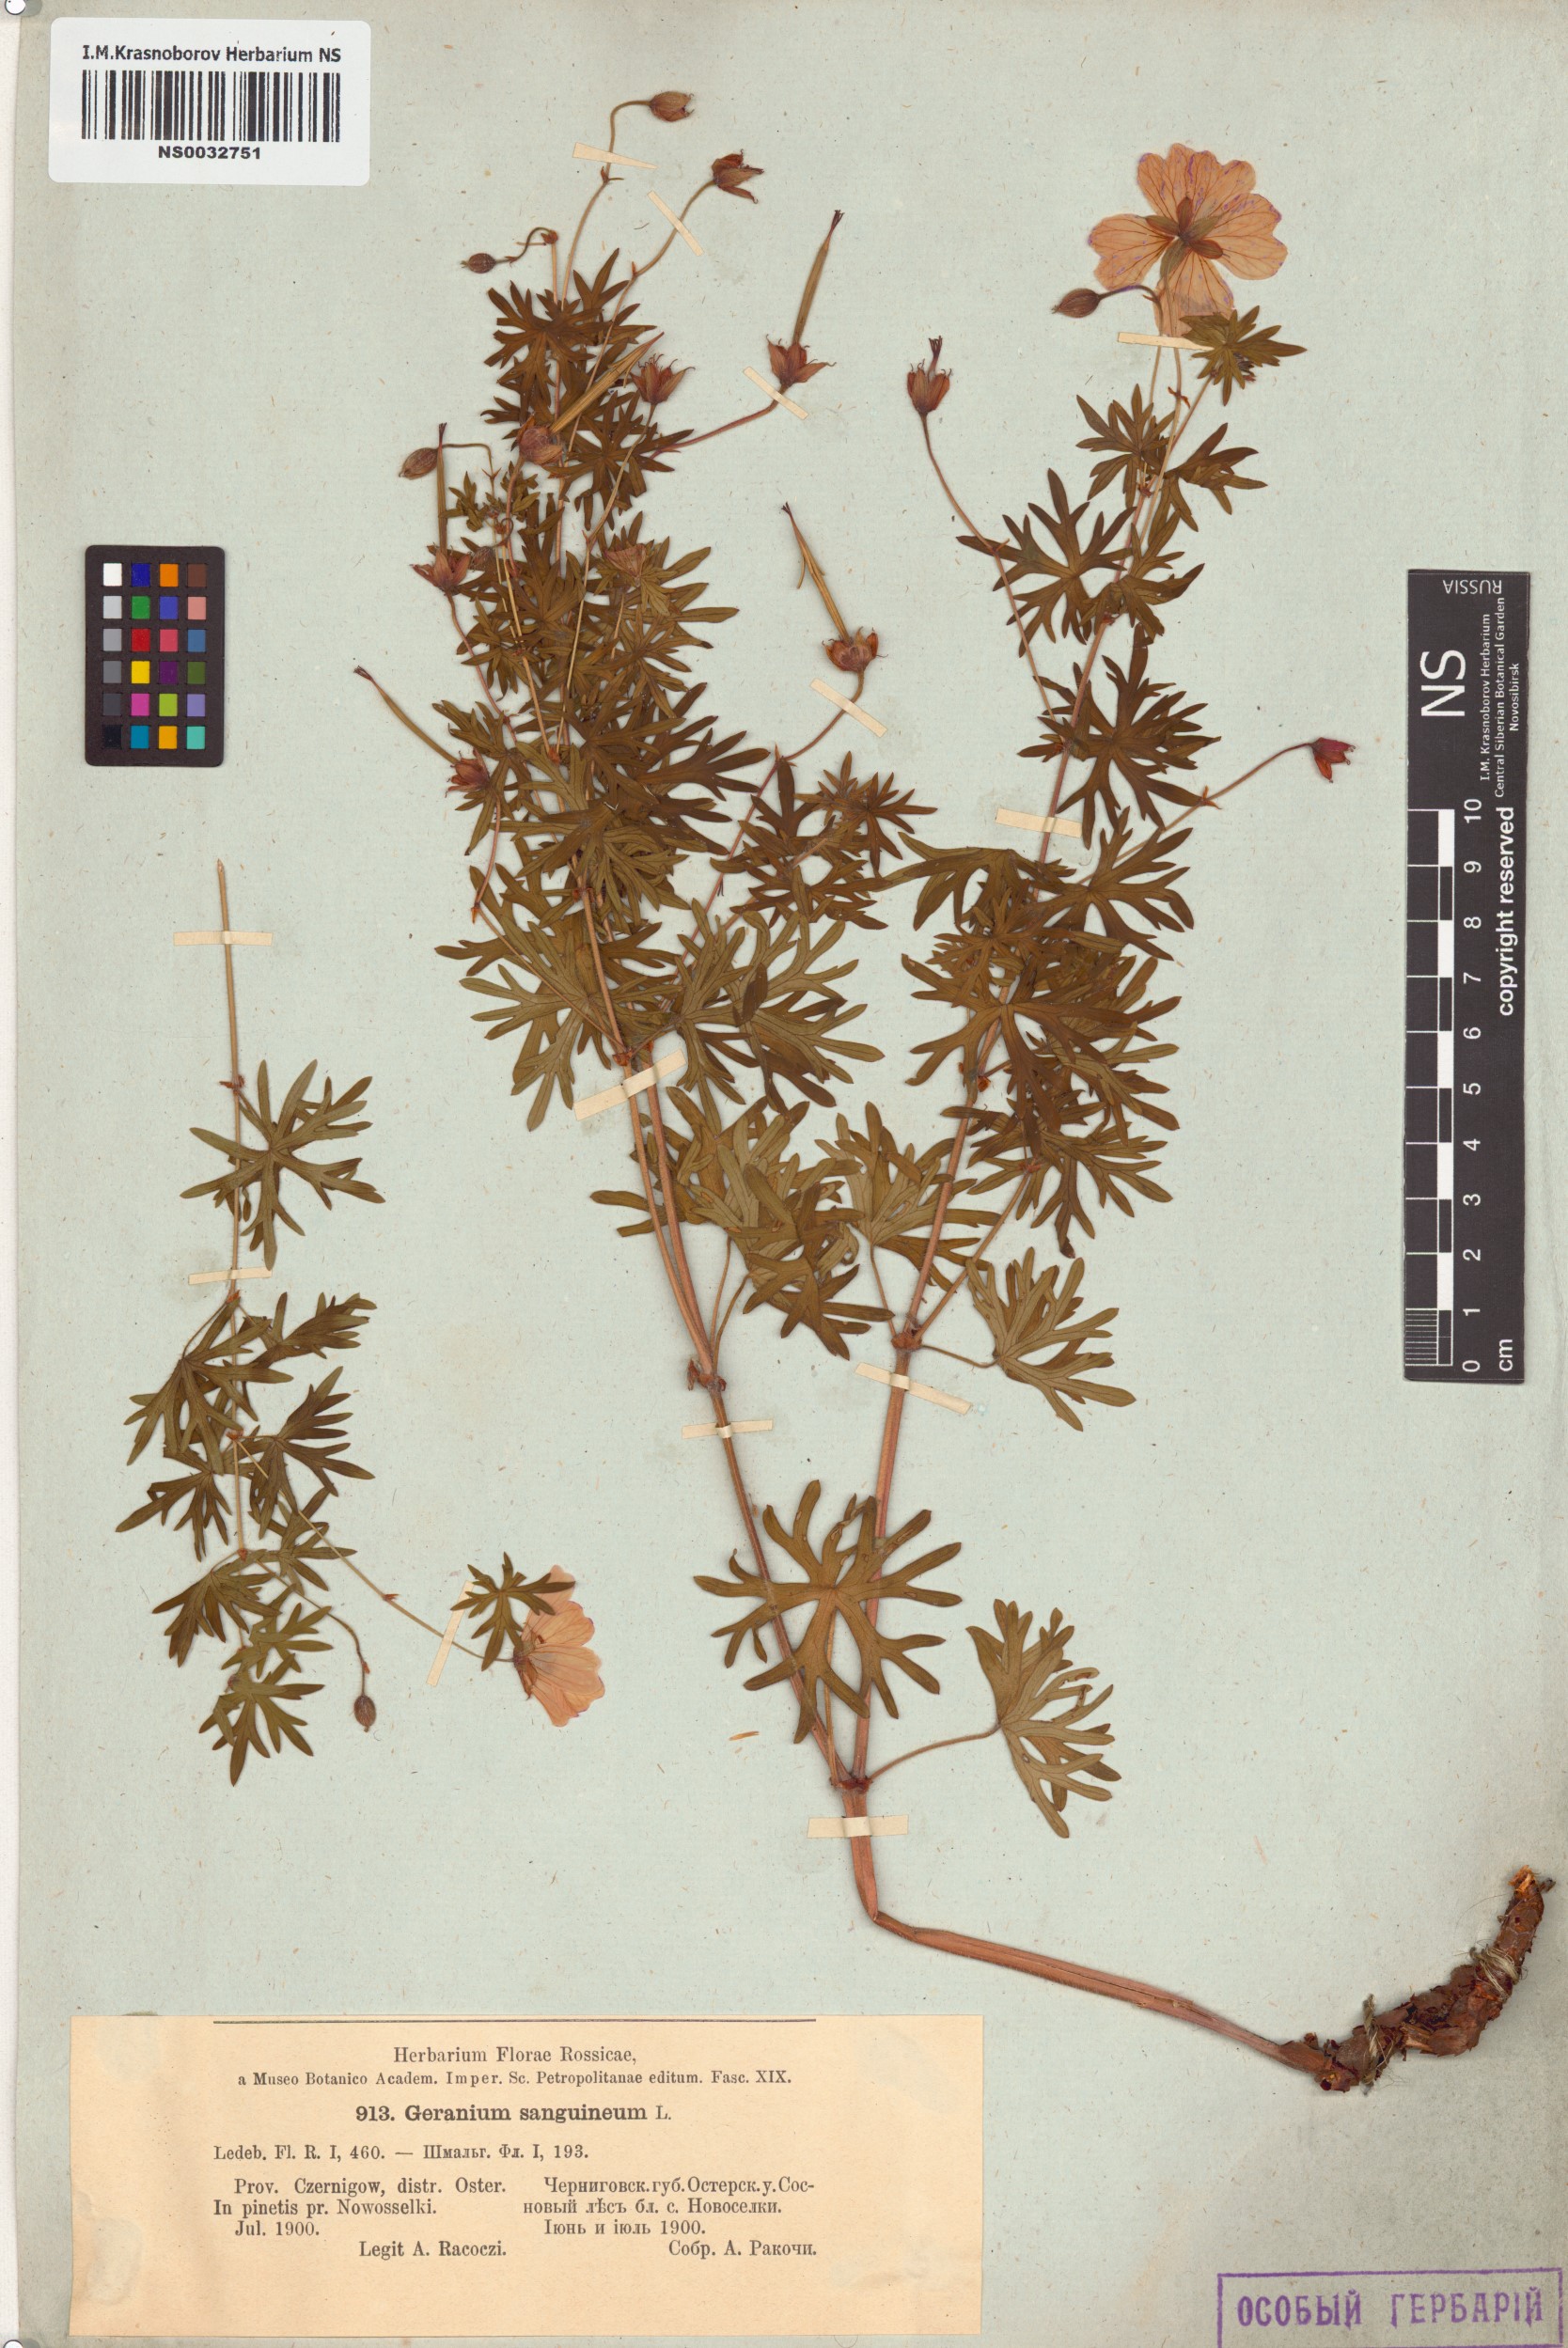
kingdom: Plantae
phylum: Tracheophyta
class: Magnoliopsida
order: Geraniales
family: Geraniaceae
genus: Geranium
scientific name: Geranium sanguineum
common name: Bloody crane's-bill
